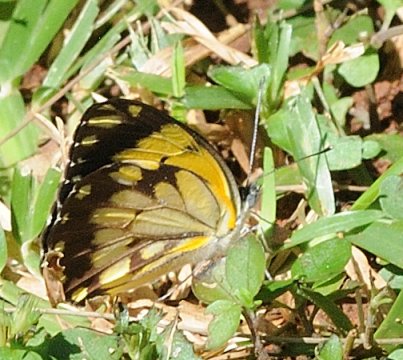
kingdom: Animalia
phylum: Arthropoda
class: Insecta
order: Lepidoptera
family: Pieridae
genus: Belenois
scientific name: Belenois creona
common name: African Caper
